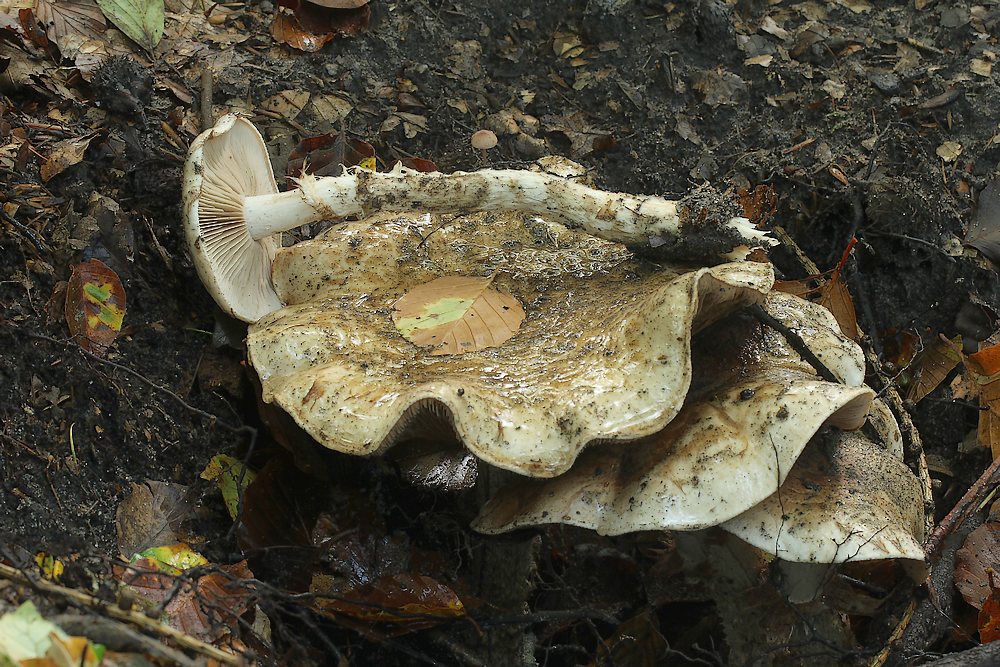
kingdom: Fungi
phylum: Basidiomycota
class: Agaricomycetes
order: Agaricales
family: Hymenogastraceae
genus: Hebeloma
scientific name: Hebeloma radicosum
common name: pælerods-tåreblad
